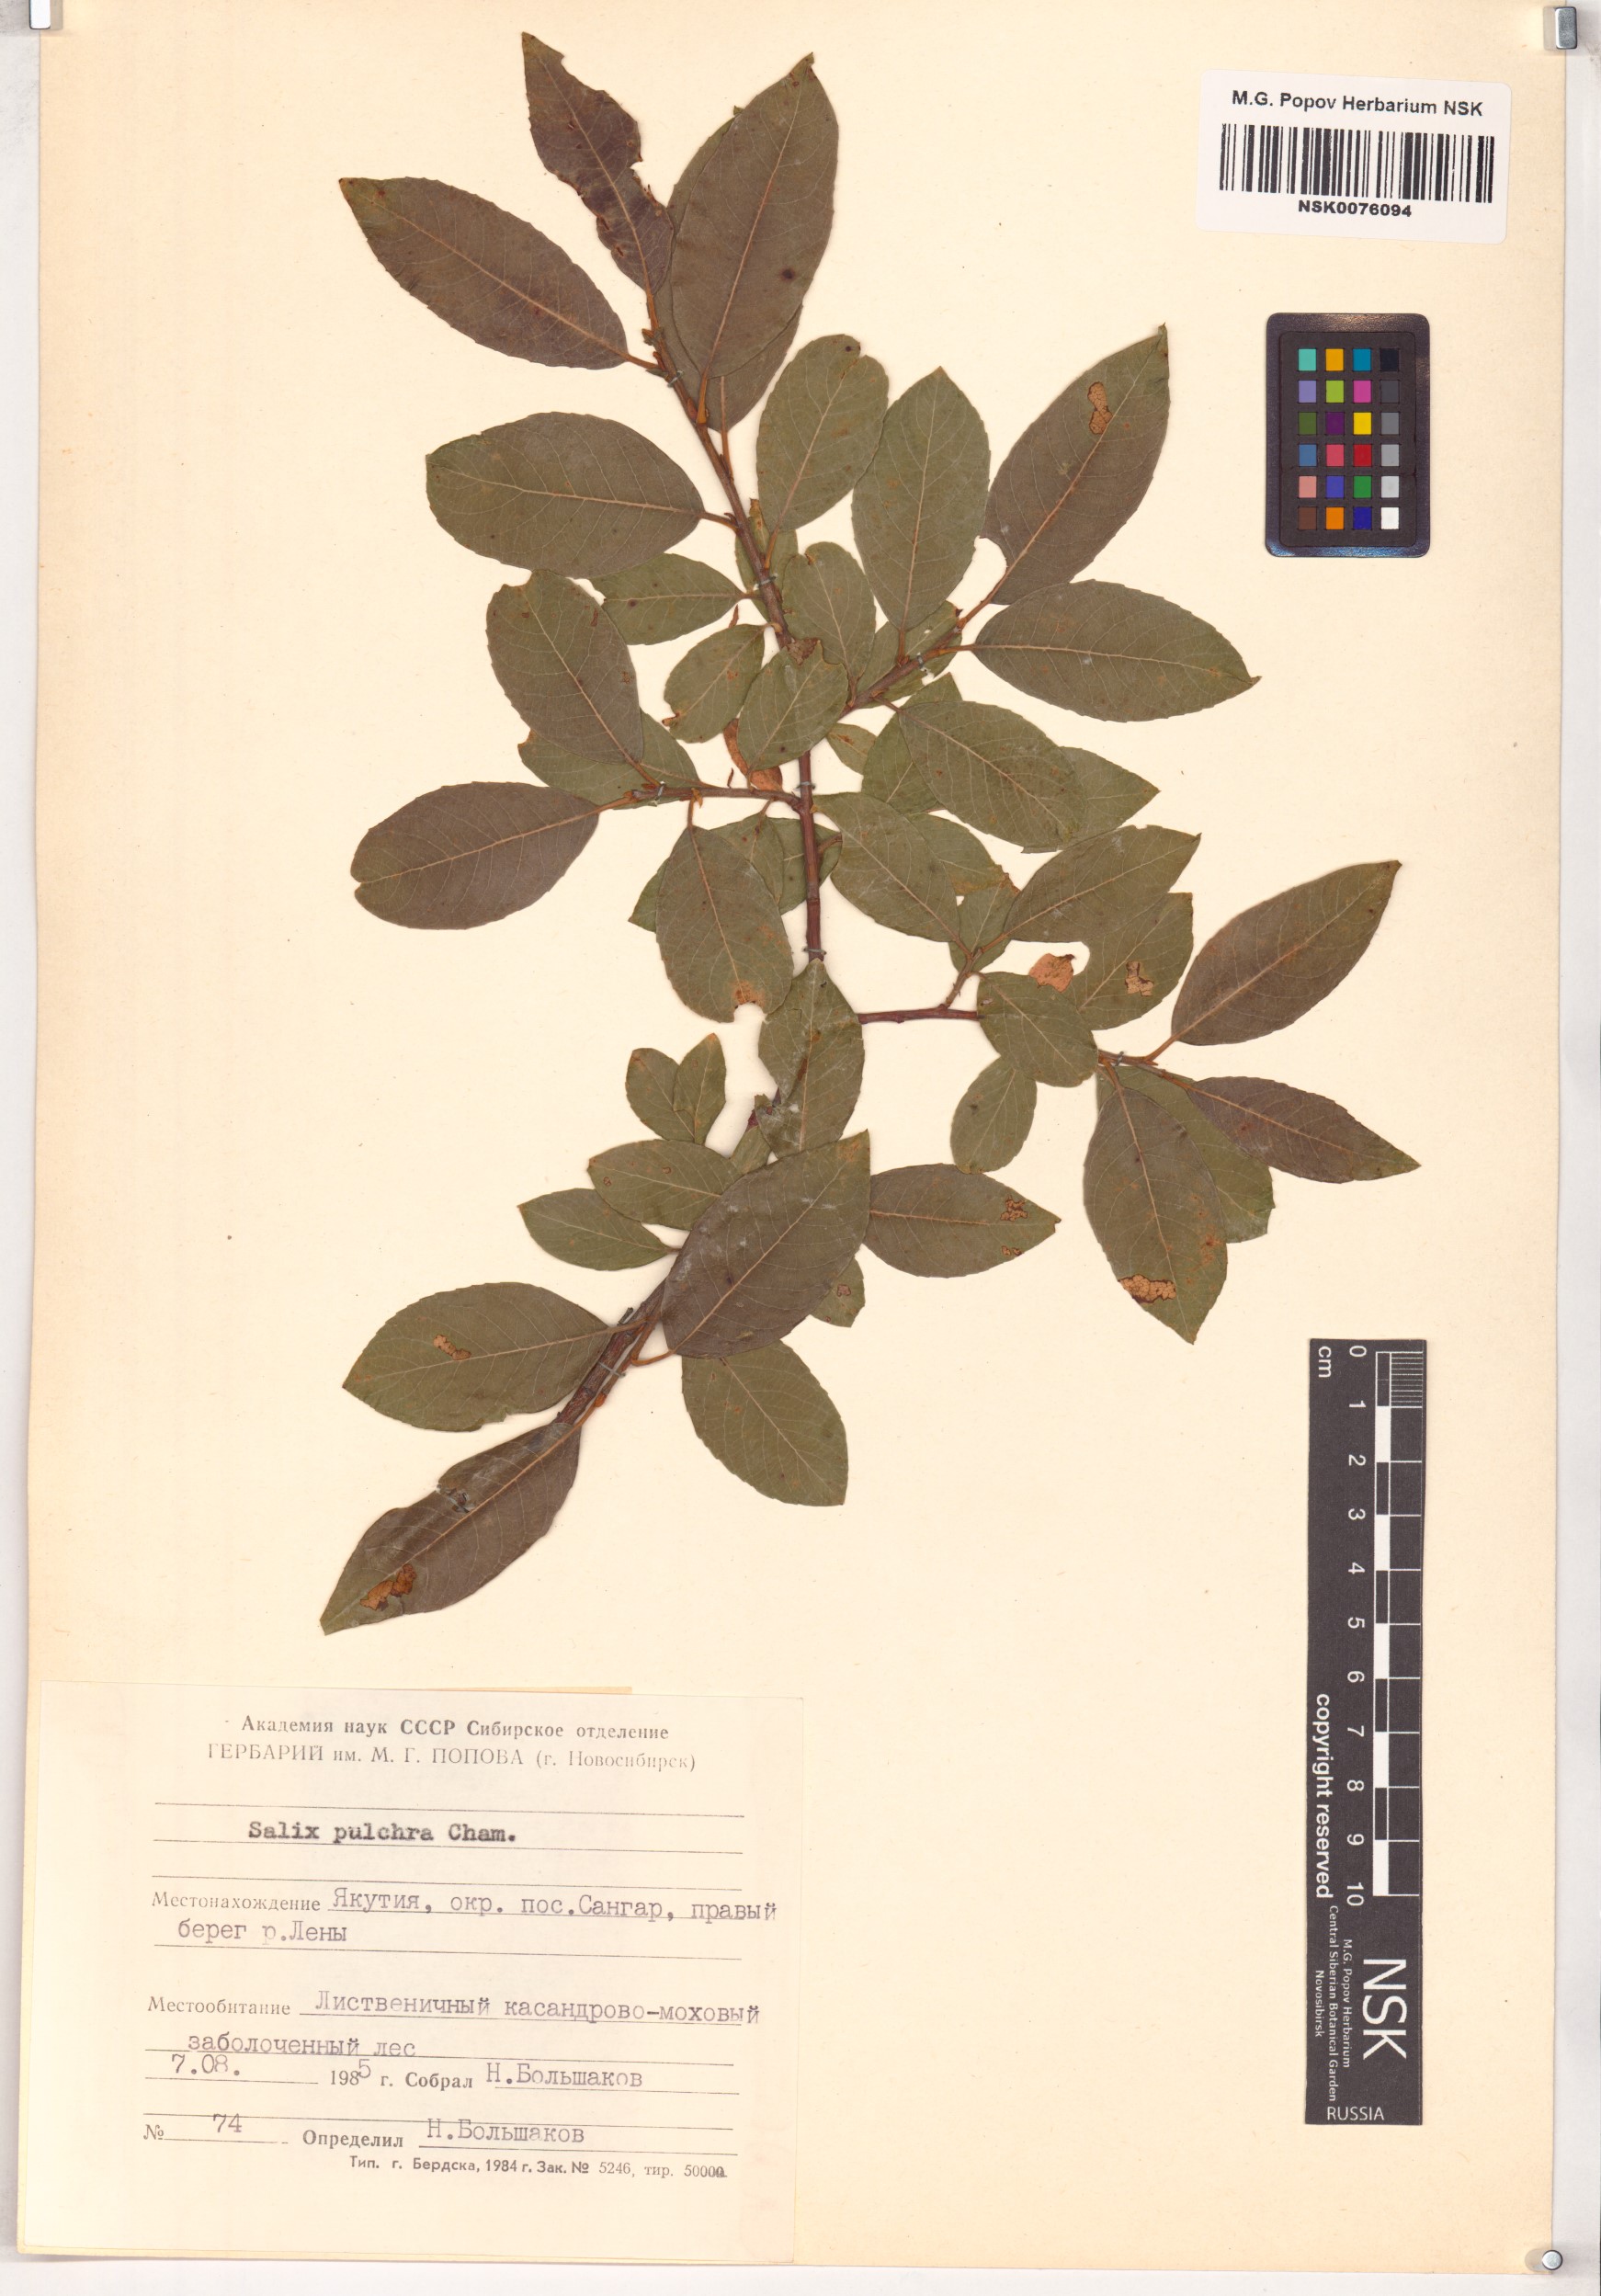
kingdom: Plantae
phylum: Tracheophyta
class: Magnoliopsida
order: Malpighiales
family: Salicaceae
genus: Salix
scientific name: Salix pulchra
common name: Diamond-leaved willow
